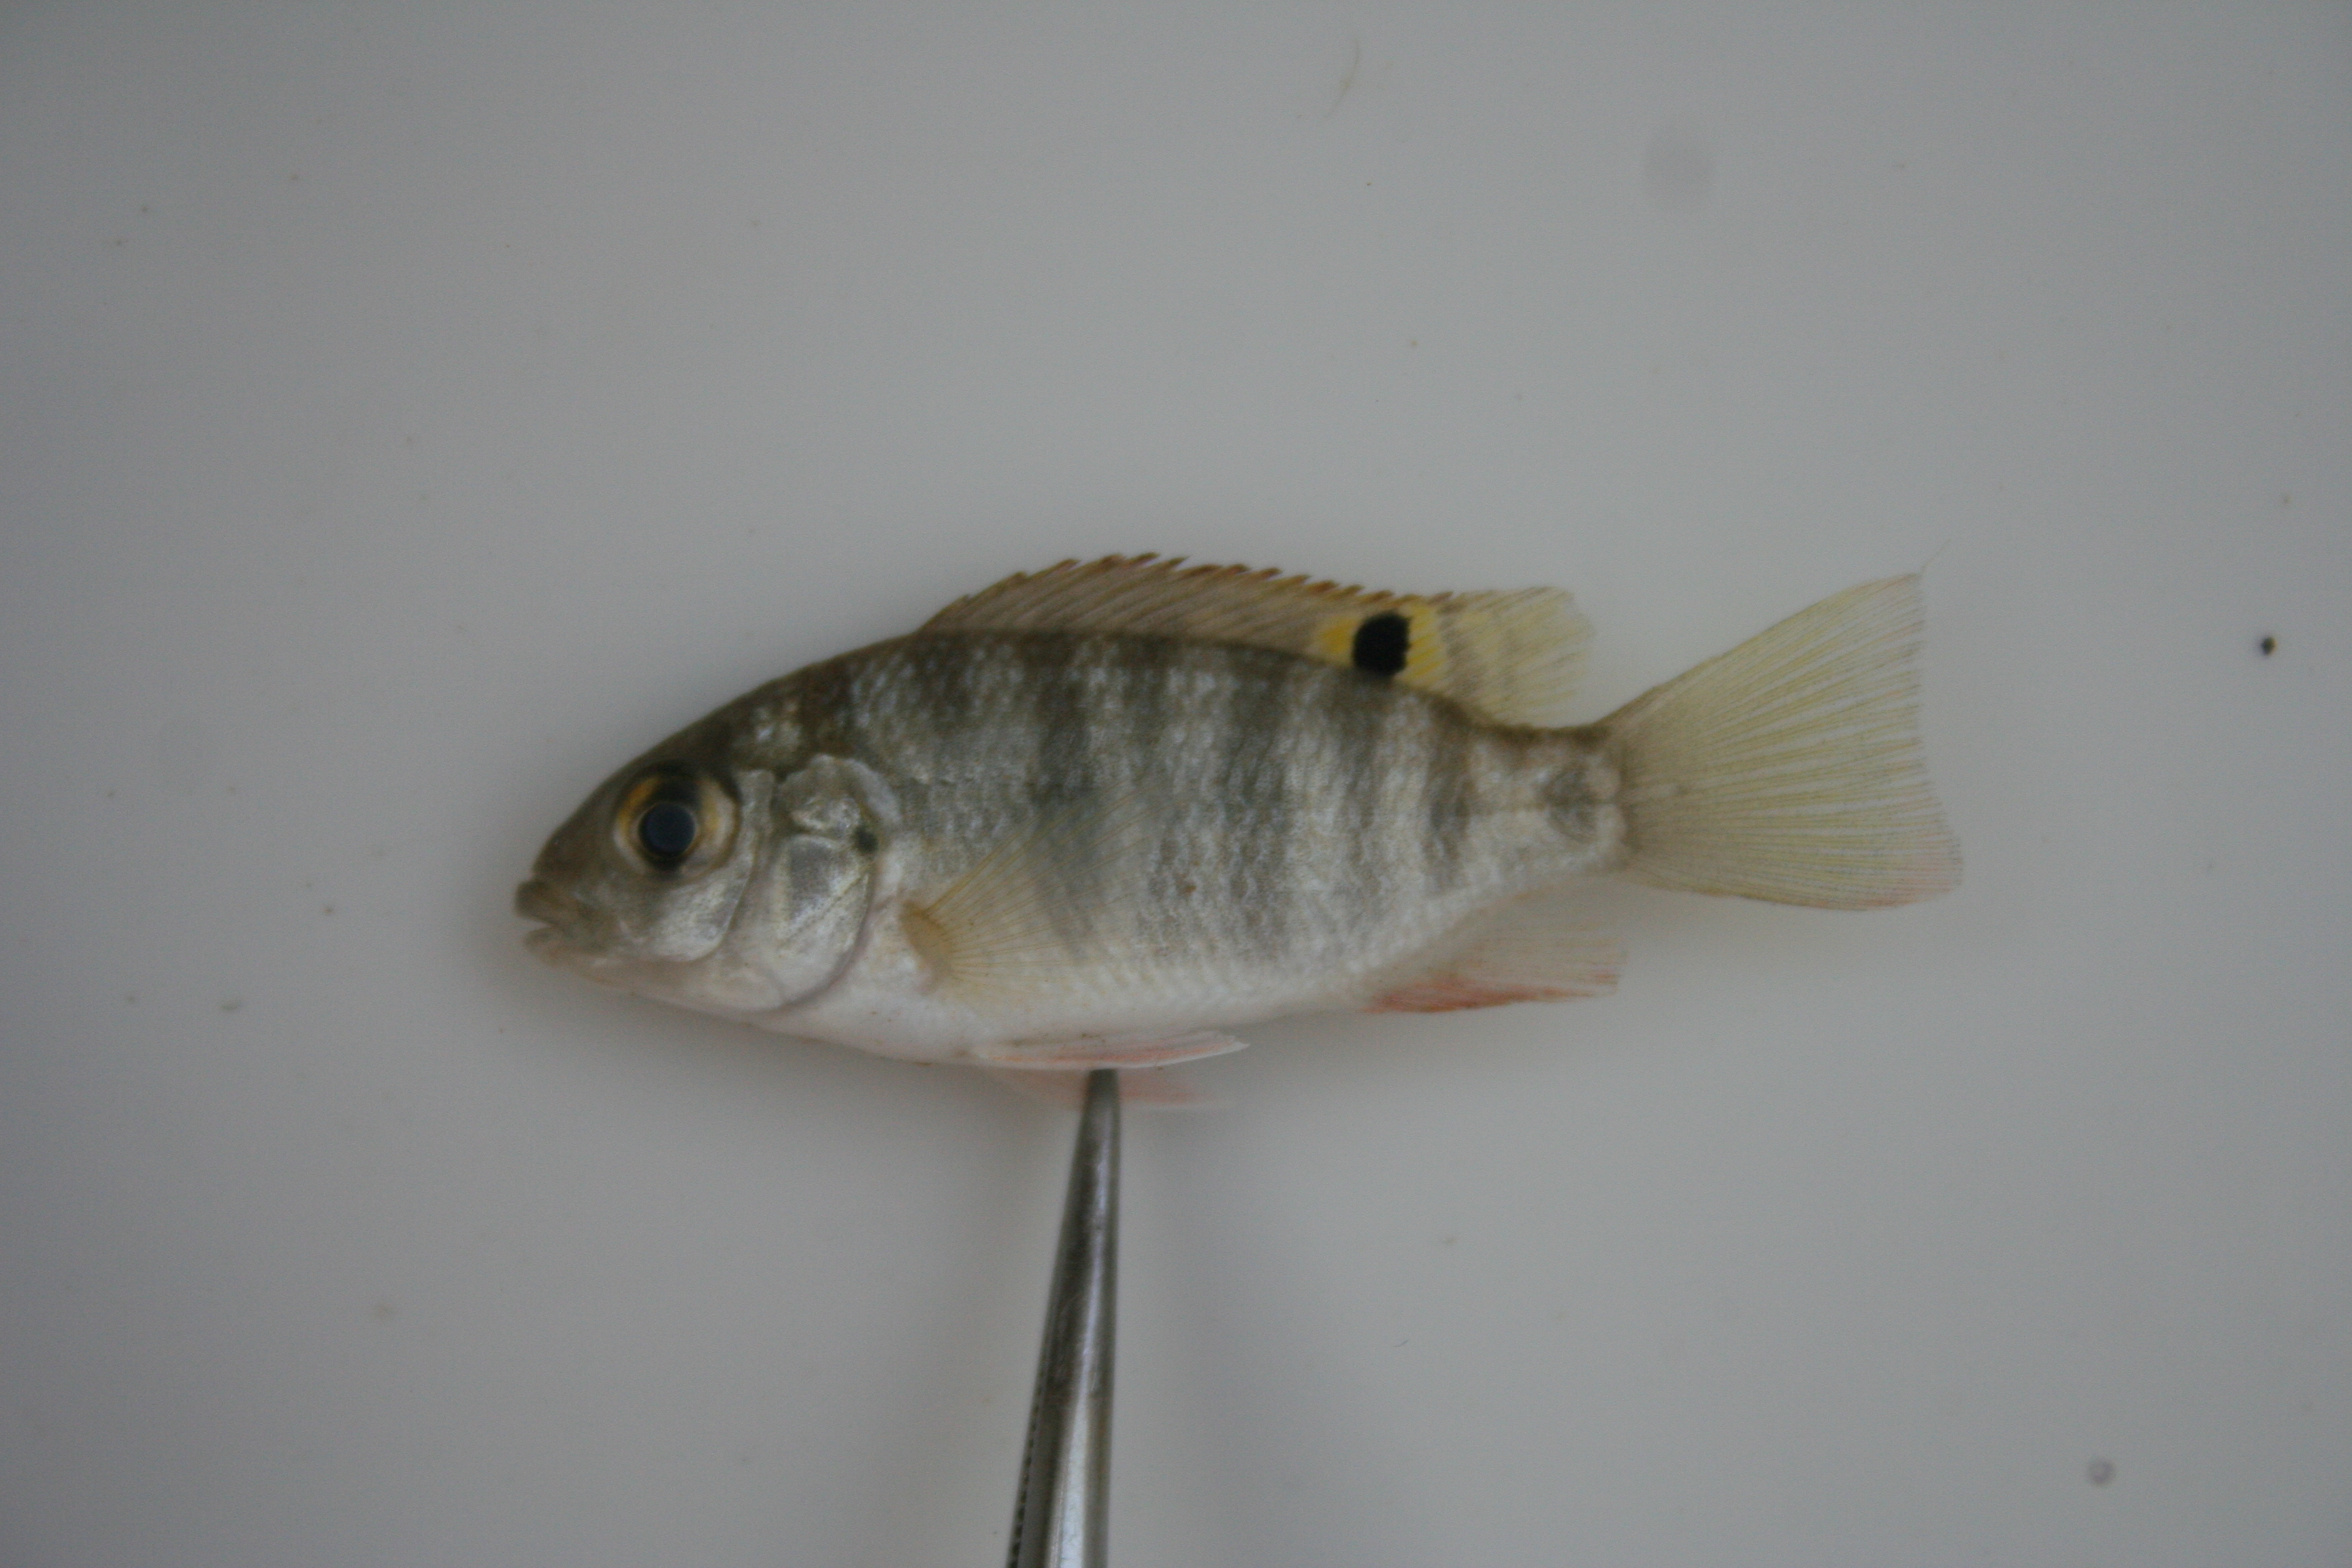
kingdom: Animalia
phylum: Chordata
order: Perciformes
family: Cichlidae
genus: Coptodon
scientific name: Coptodon rendalli
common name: Redbreast tilapia
